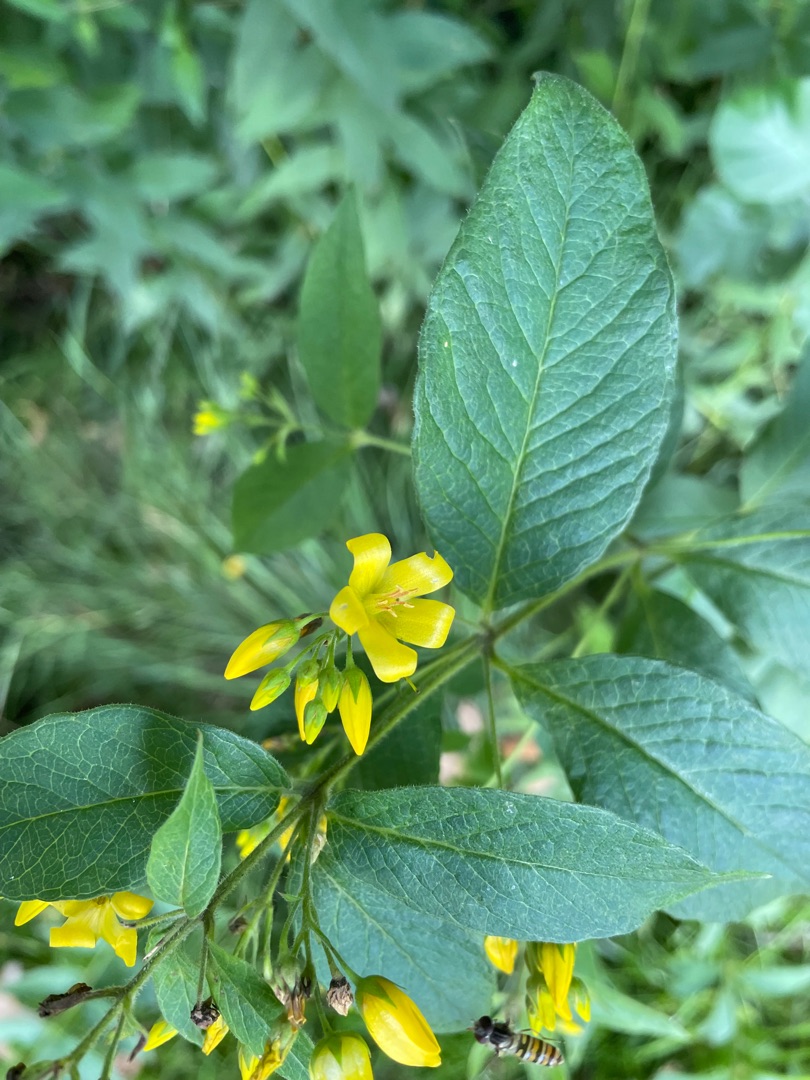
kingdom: Plantae
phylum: Tracheophyta
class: Magnoliopsida
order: Ericales
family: Primulaceae
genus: Lysimachia
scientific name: Lysimachia vulgaris
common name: Almindelig fredløs
